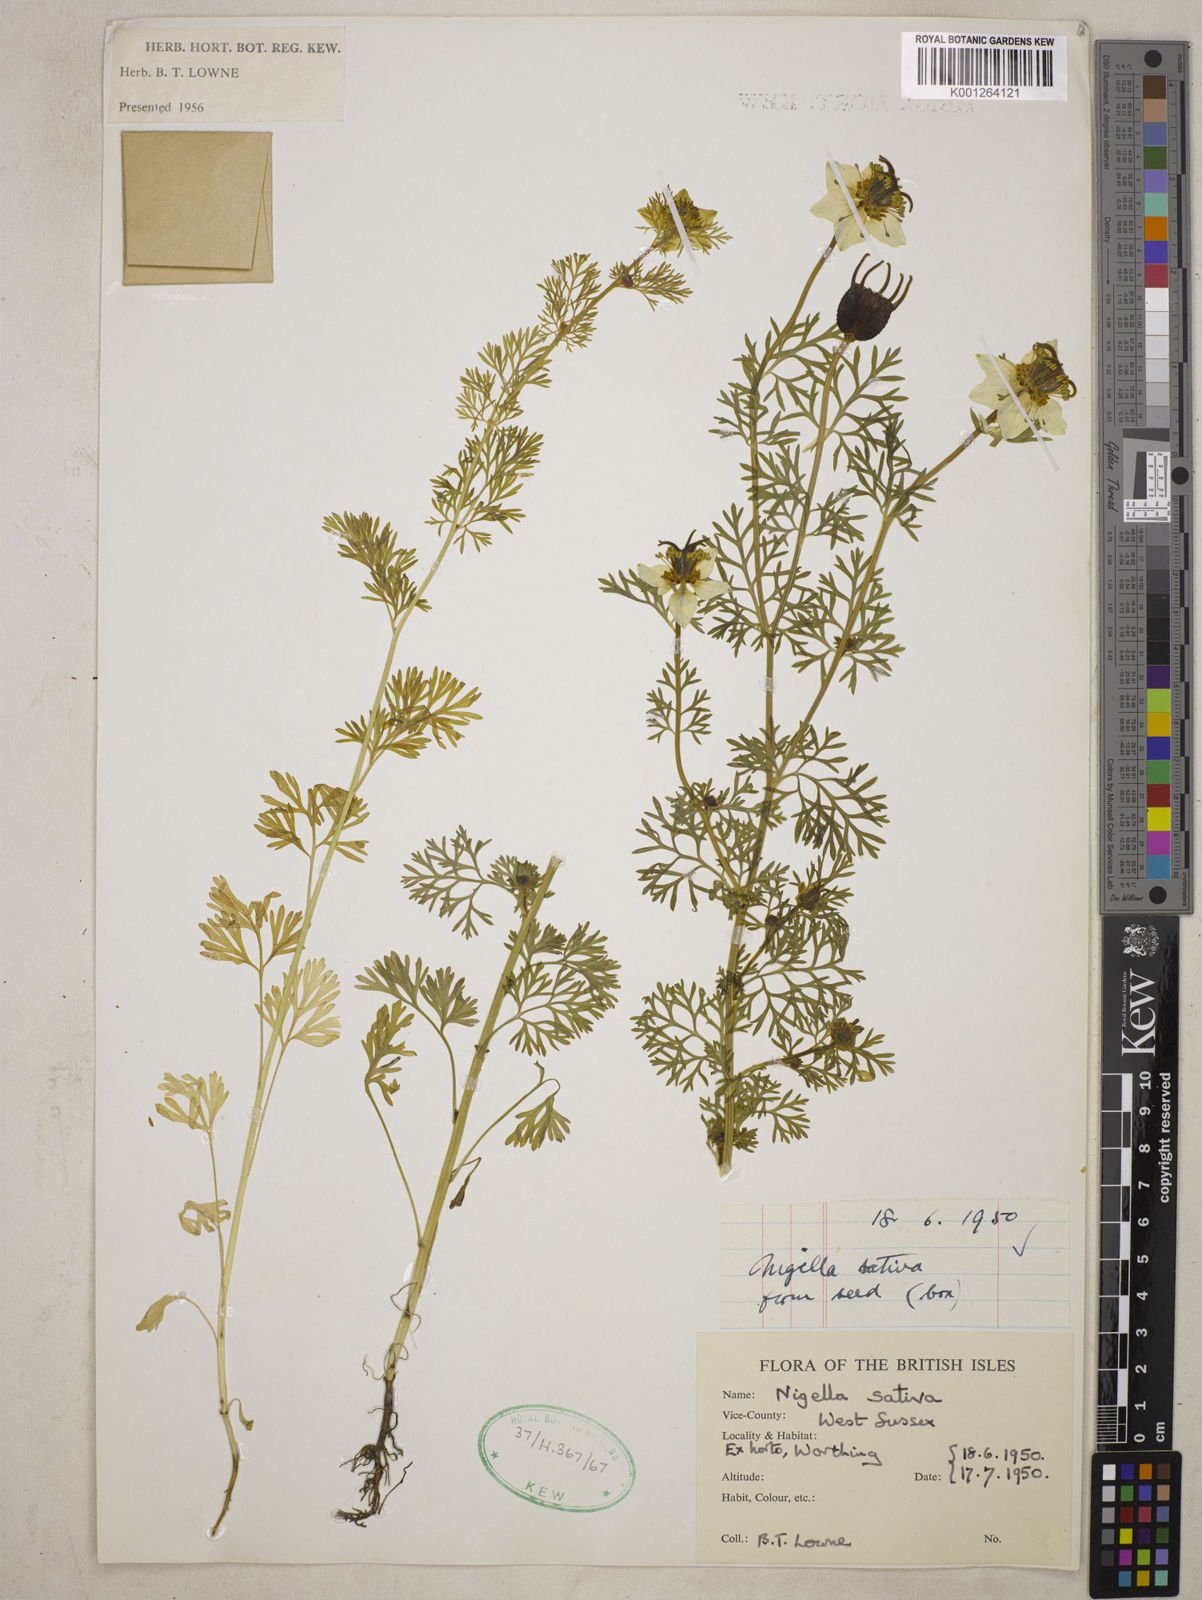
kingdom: Plantae
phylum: Tracheophyta
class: Magnoliopsida
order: Ranunculales
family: Ranunculaceae
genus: Nigella
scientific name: Nigella sativa
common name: Black-cumin
